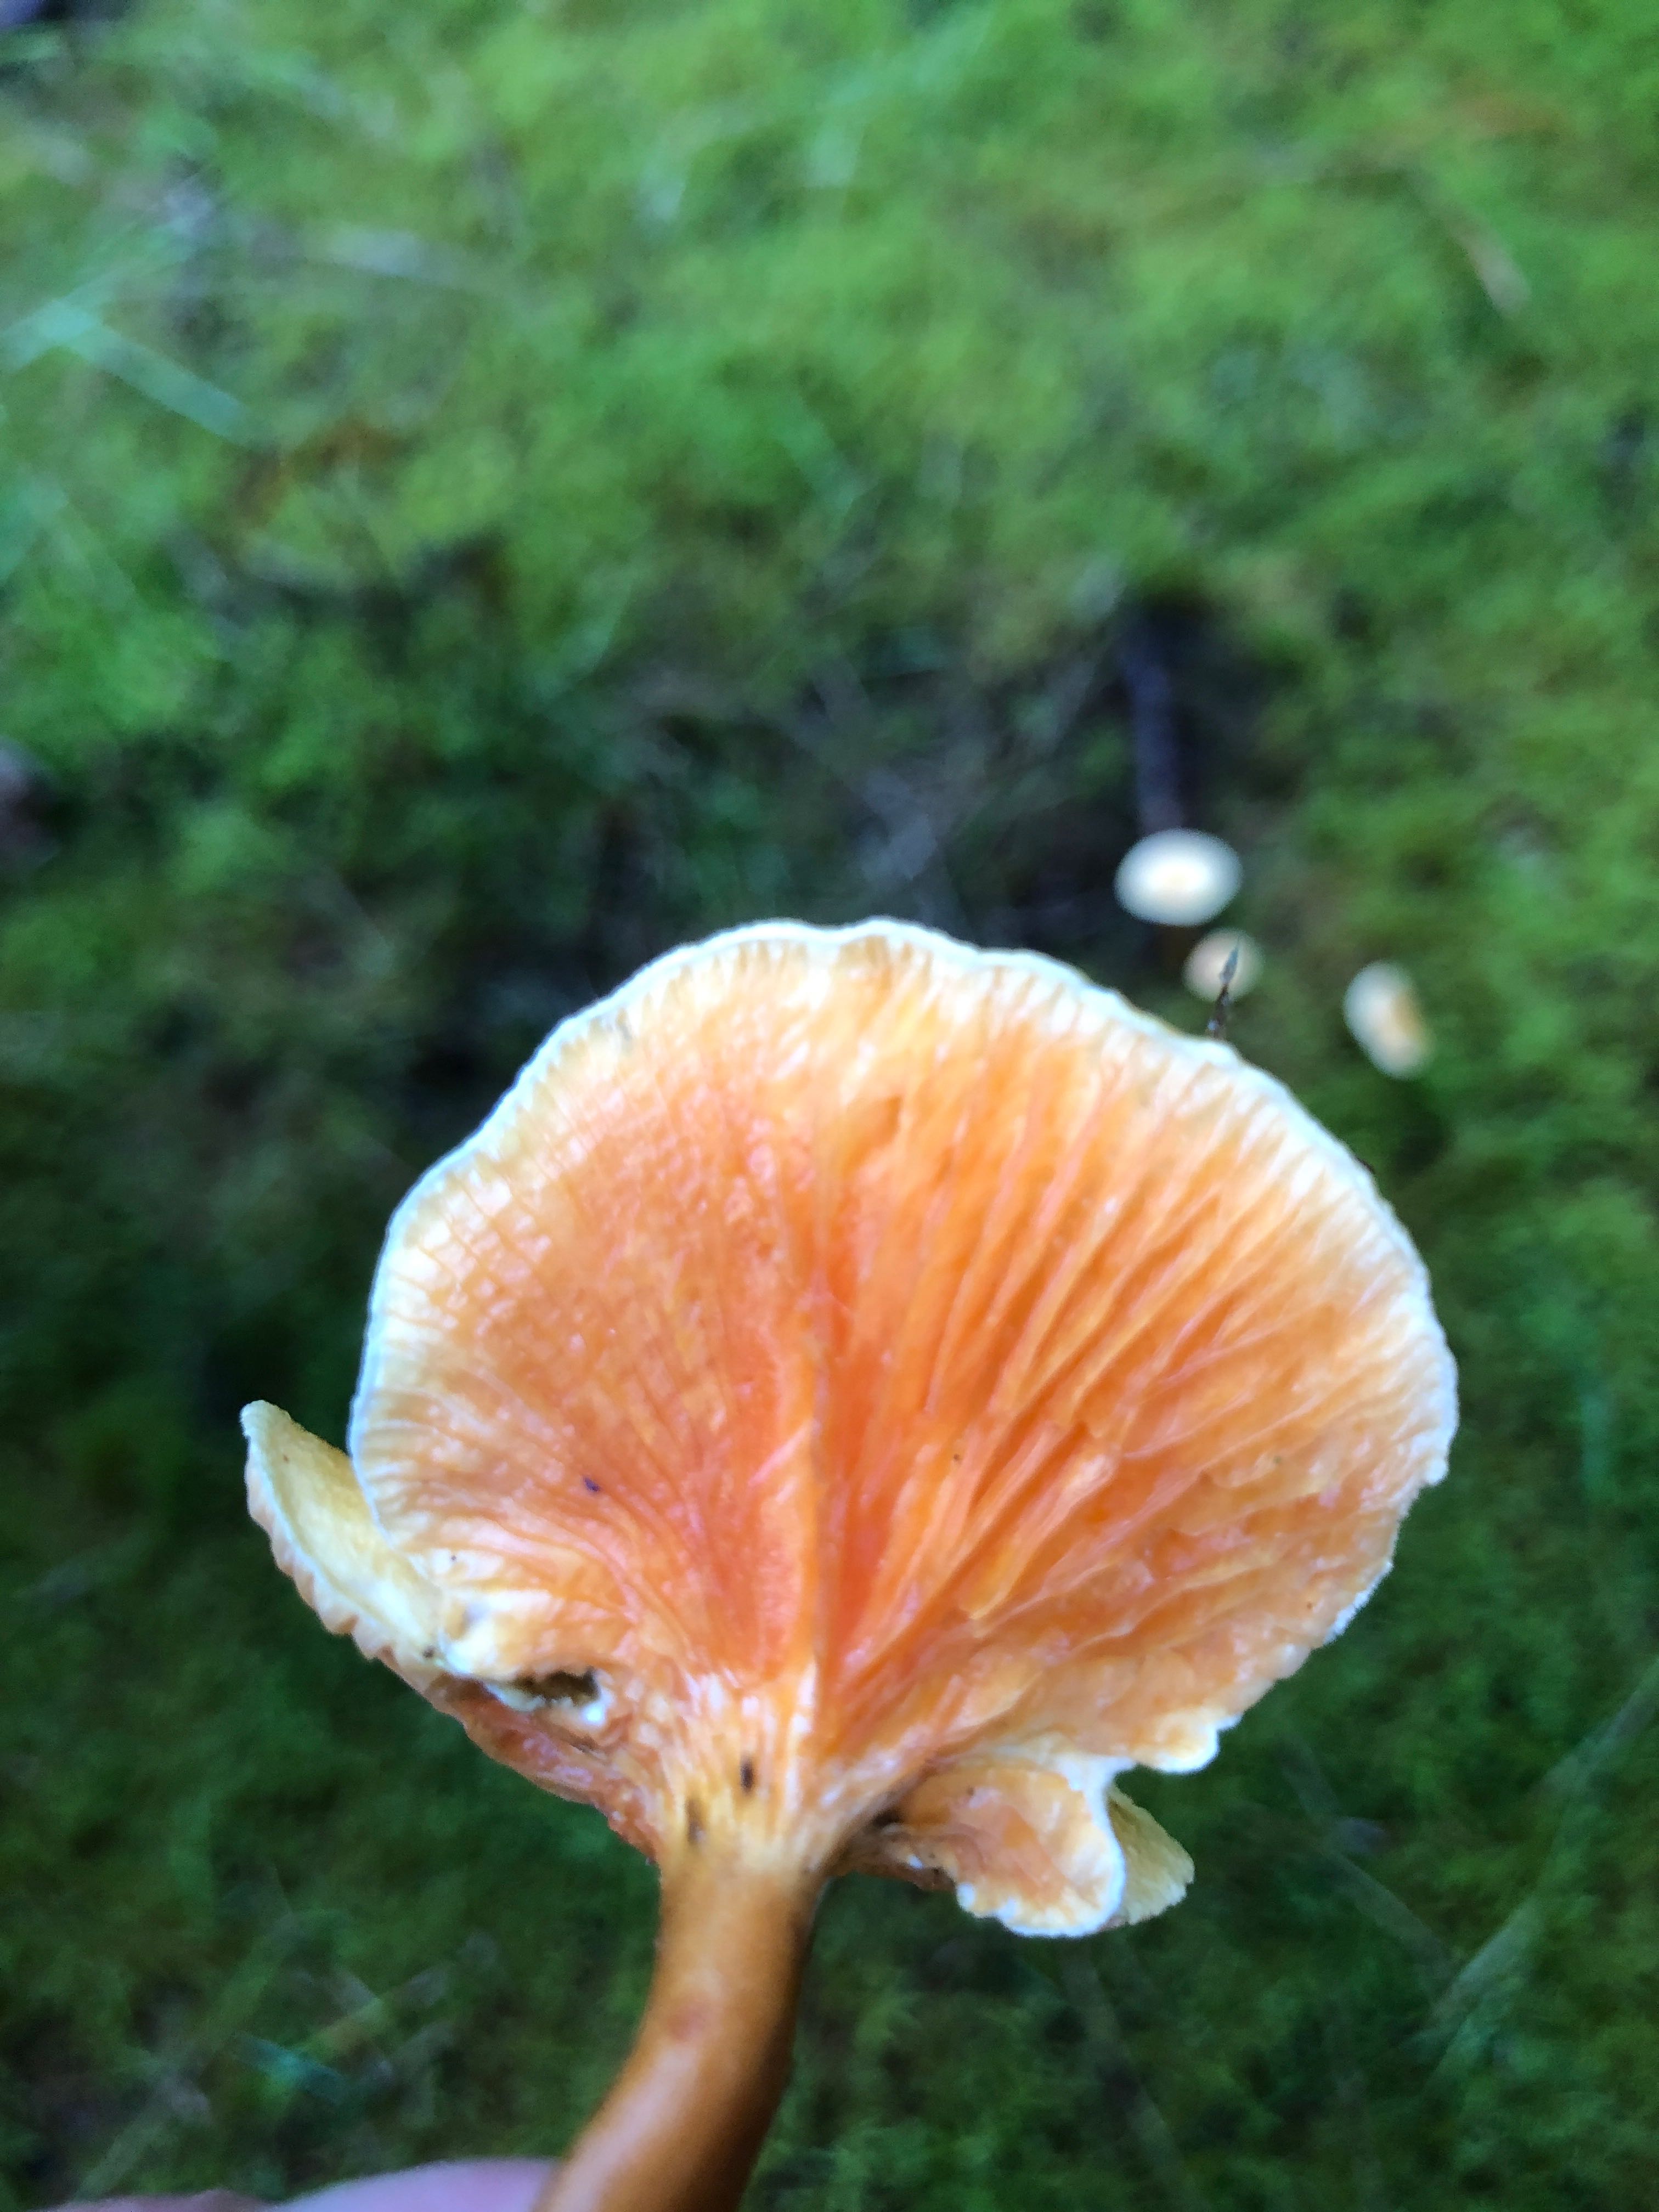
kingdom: Fungi
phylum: Basidiomycota
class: Agaricomycetes
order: Boletales
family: Hygrophoropsidaceae
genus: Hygrophoropsis
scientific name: Hygrophoropsis
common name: orangekantarel
